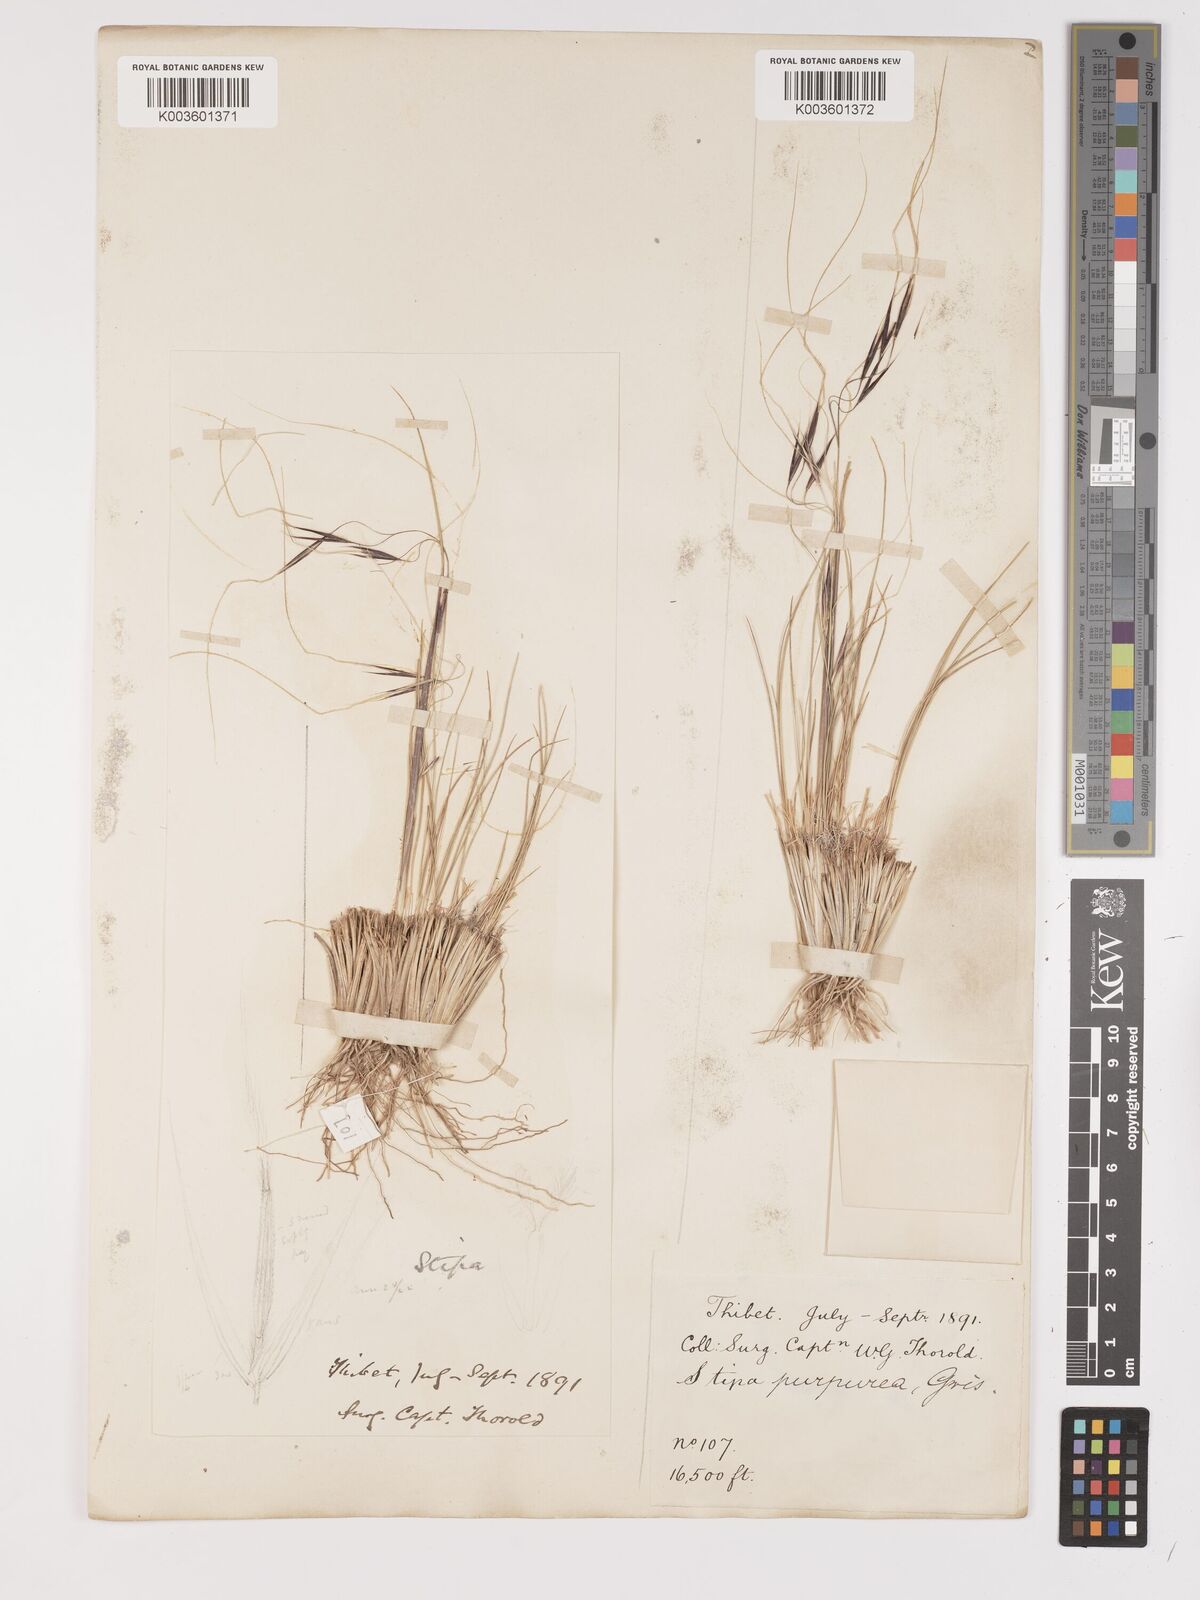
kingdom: Plantae
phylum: Tracheophyta
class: Liliopsida
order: Poales
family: Poaceae
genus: Stipa
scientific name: Stipa purpurea
